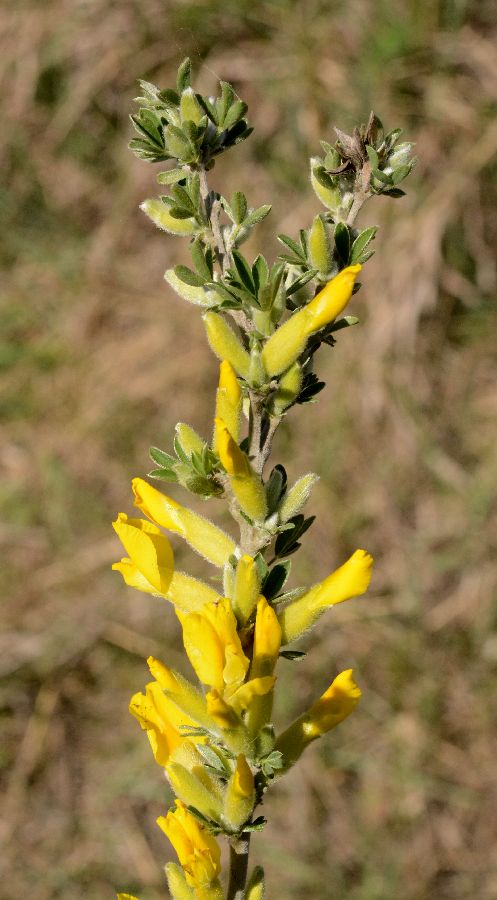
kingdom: Plantae
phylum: Tracheophyta
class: Magnoliopsida
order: Fabales
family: Fabaceae
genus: Chamaecytisus
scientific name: Chamaecytisus ruthenicus
